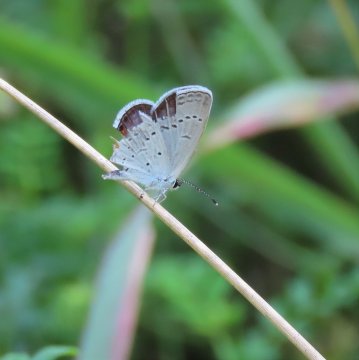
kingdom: Animalia
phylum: Arthropoda
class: Insecta
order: Lepidoptera
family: Lycaenidae
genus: Elkalyce
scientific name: Elkalyce comyntas
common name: Eastern Tailed-Blue
